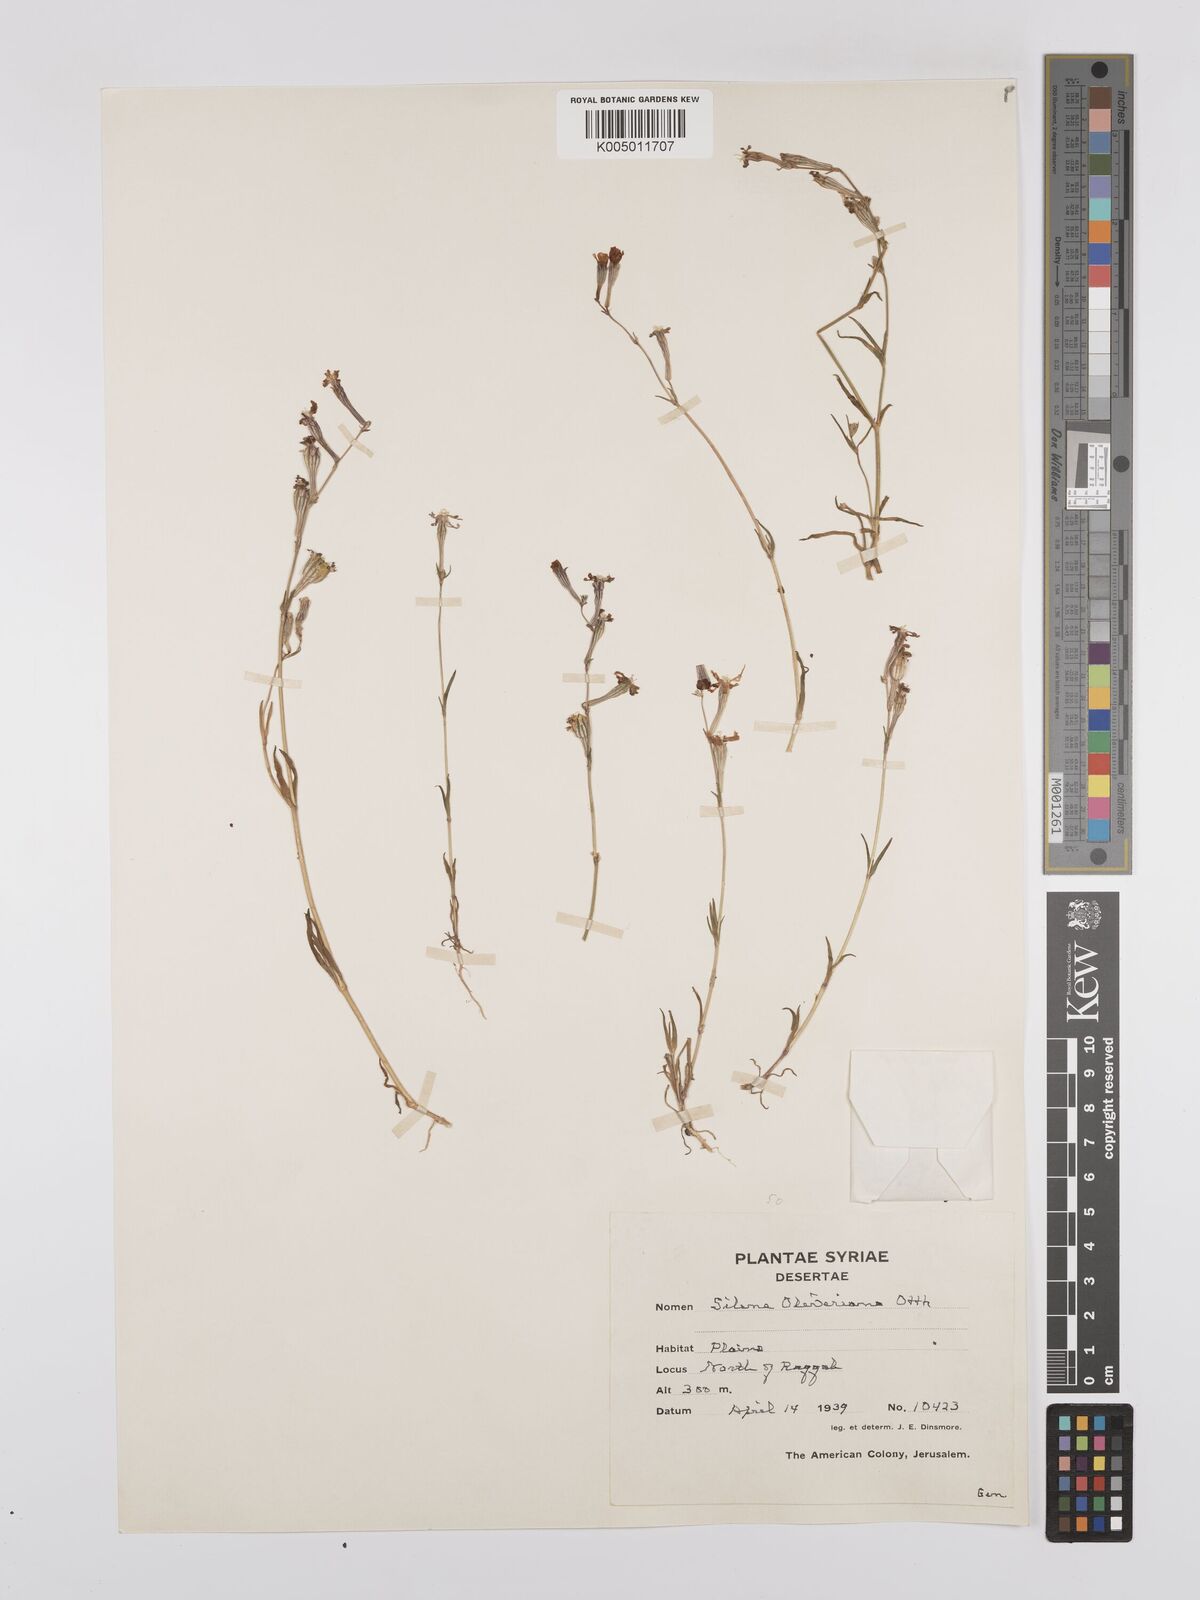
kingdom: Plantae
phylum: Tracheophyta
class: Magnoliopsida
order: Caryophyllales
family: Caryophyllaceae
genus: Silene
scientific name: Silene oliveriana
